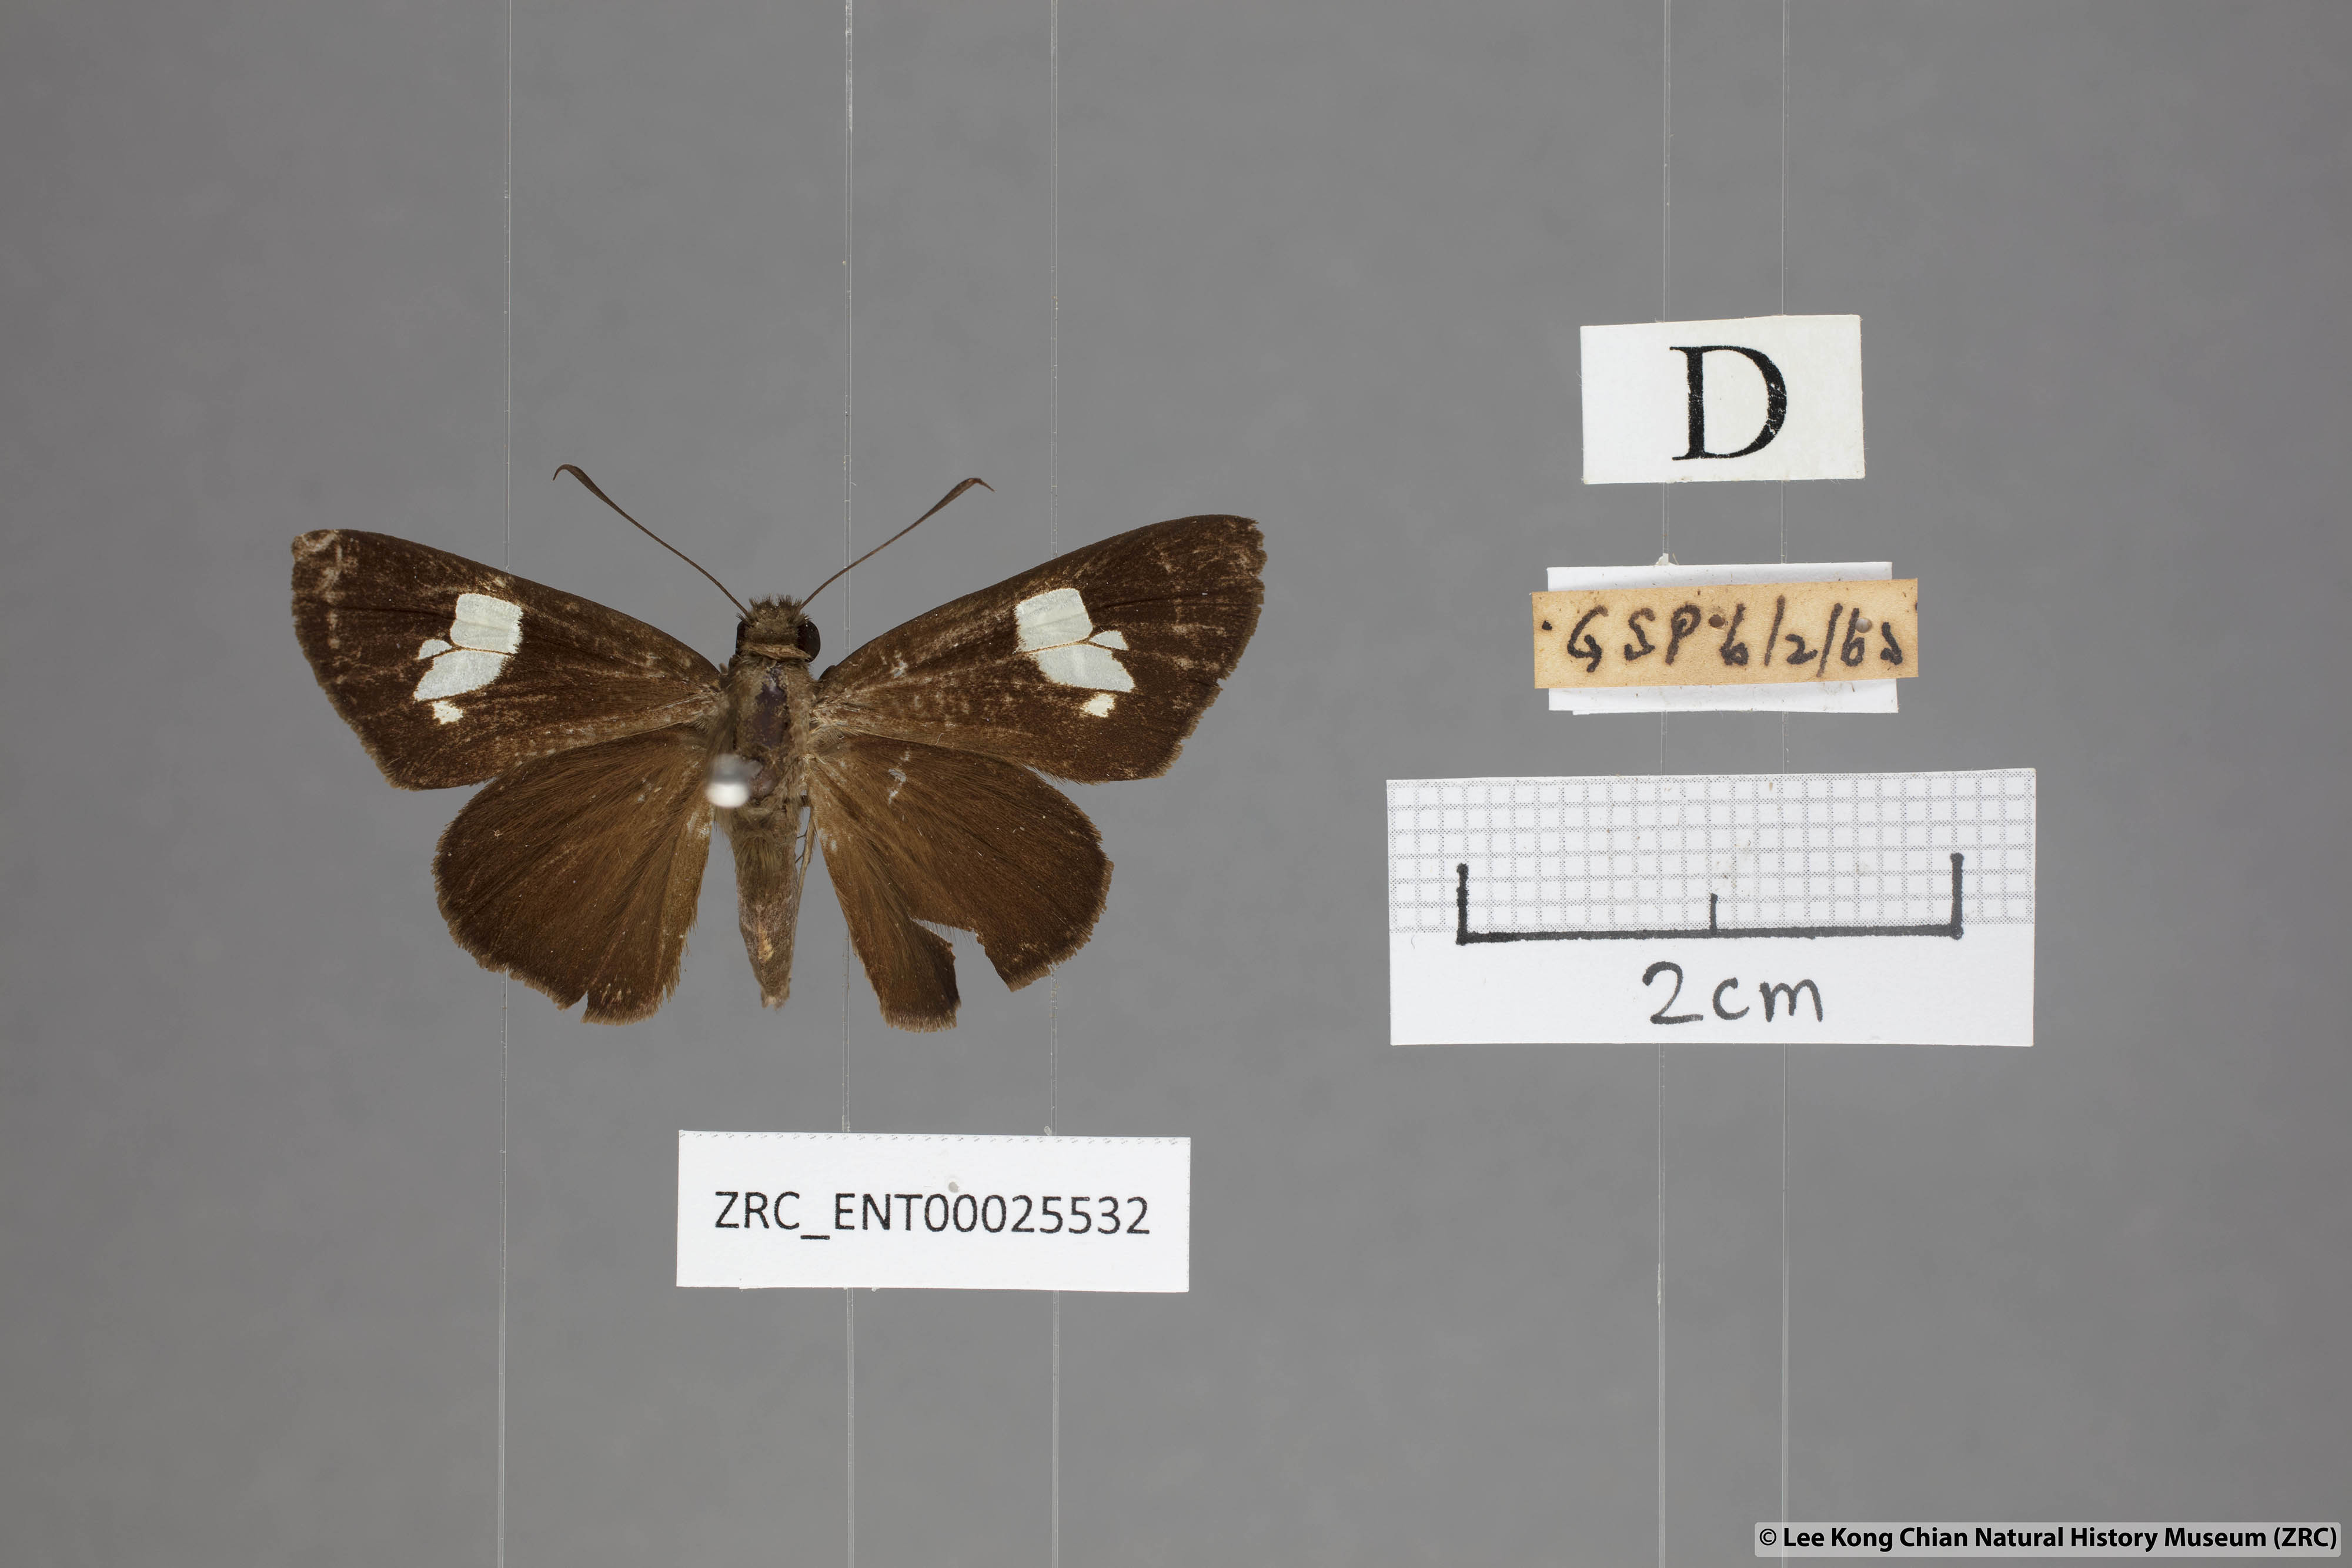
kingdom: Animalia
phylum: Arthropoda
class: Insecta
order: Lepidoptera
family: Hesperiidae
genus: Quedara
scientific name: Quedara monteithi
